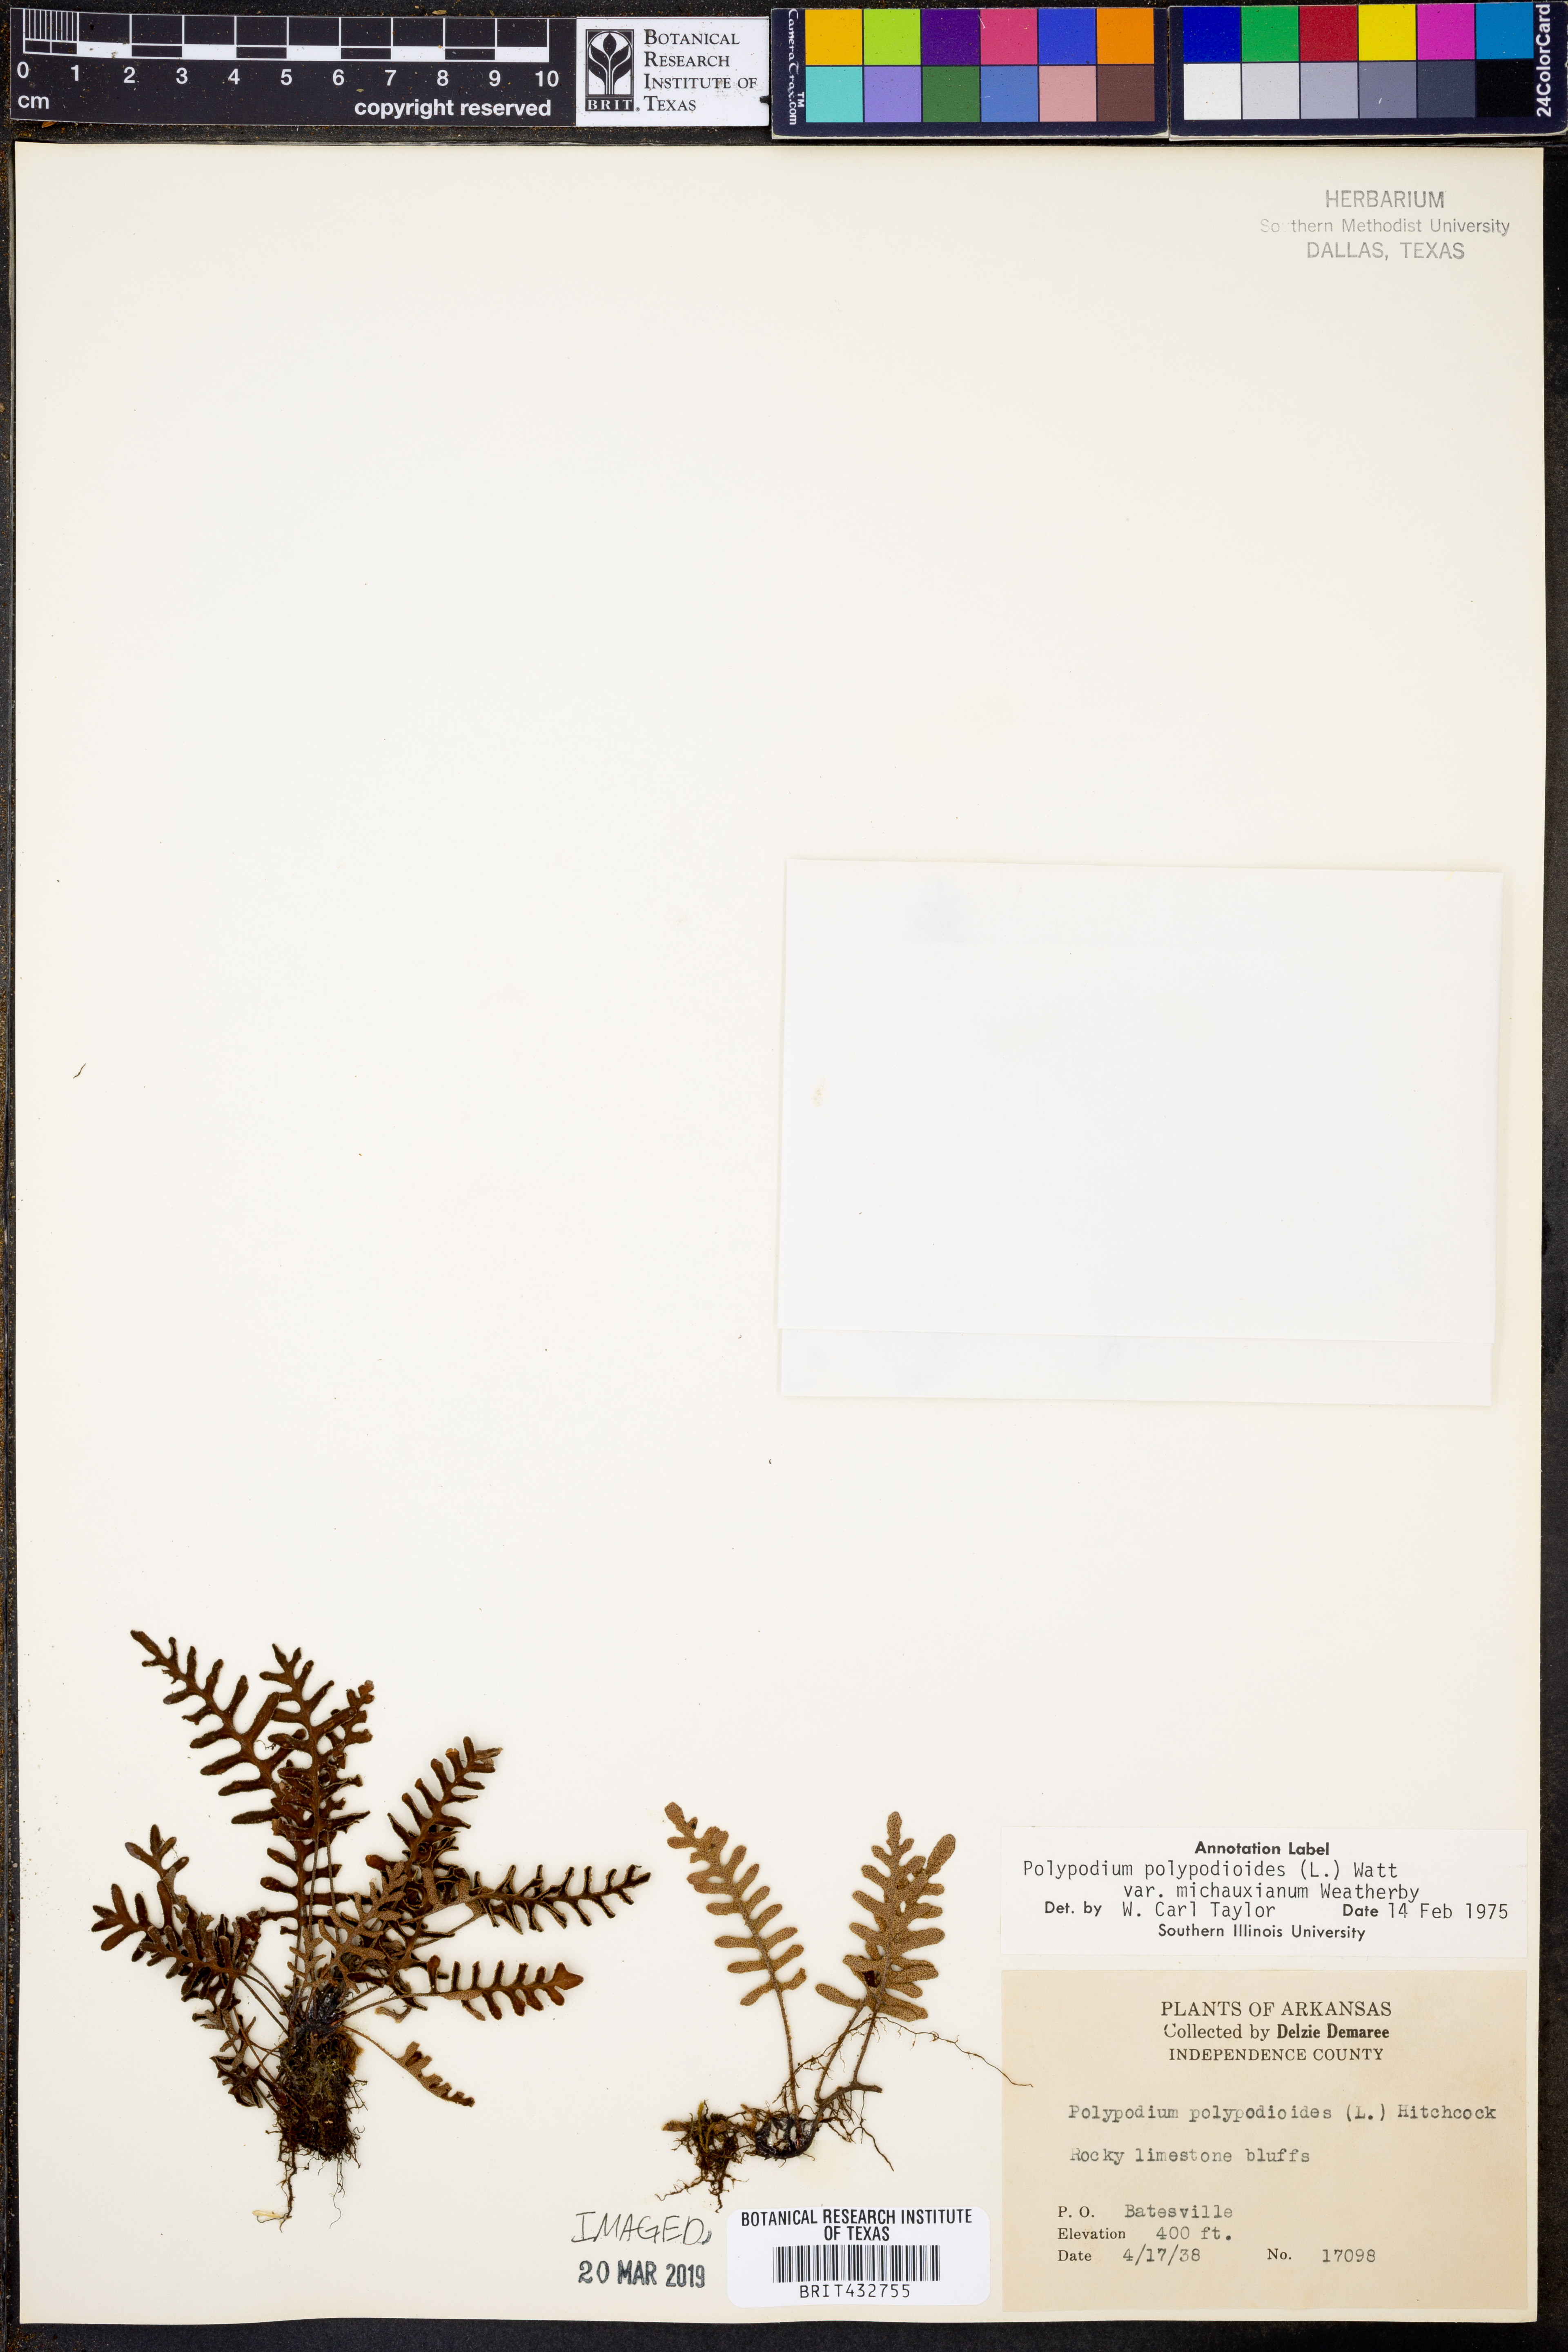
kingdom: Plantae
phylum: Tracheophyta
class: Polypodiopsida
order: Polypodiales
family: Polypodiaceae
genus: Pleopeltis
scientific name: Pleopeltis michauxiana
